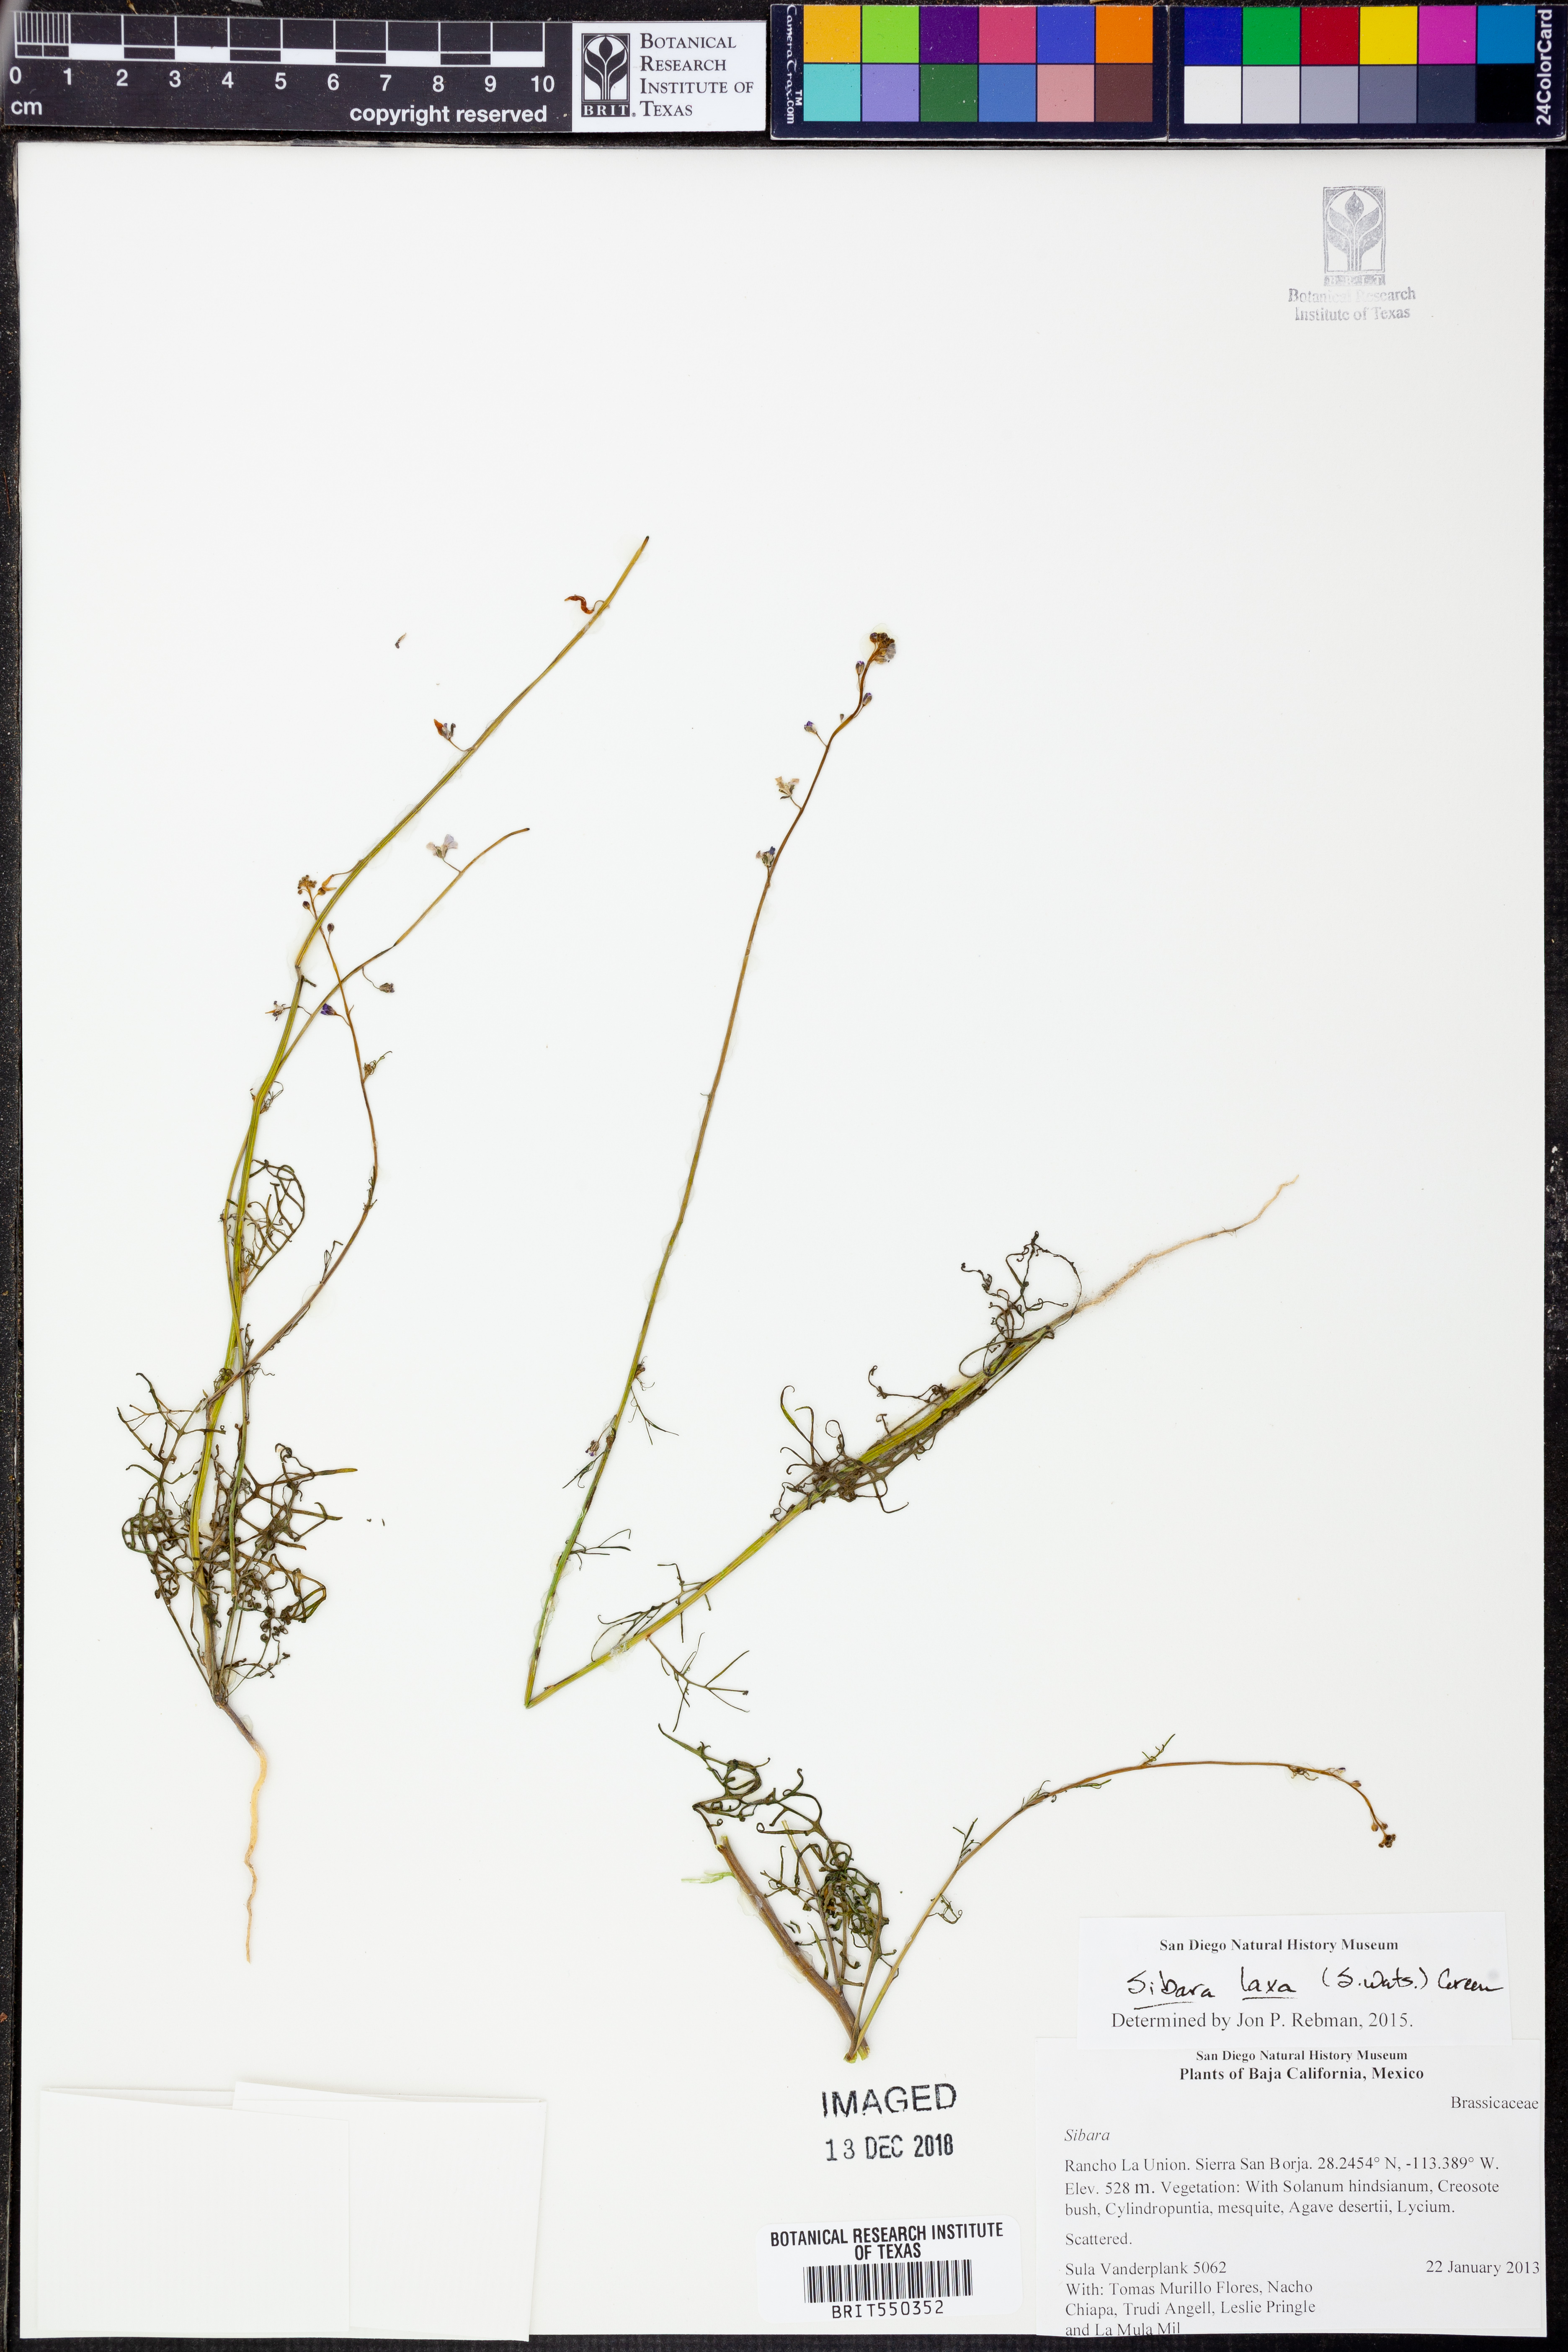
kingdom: Plantae
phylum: Tracheophyta
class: Magnoliopsida
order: Brassicales
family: Brassicaceae
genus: Sibara
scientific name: Sibara laxa
